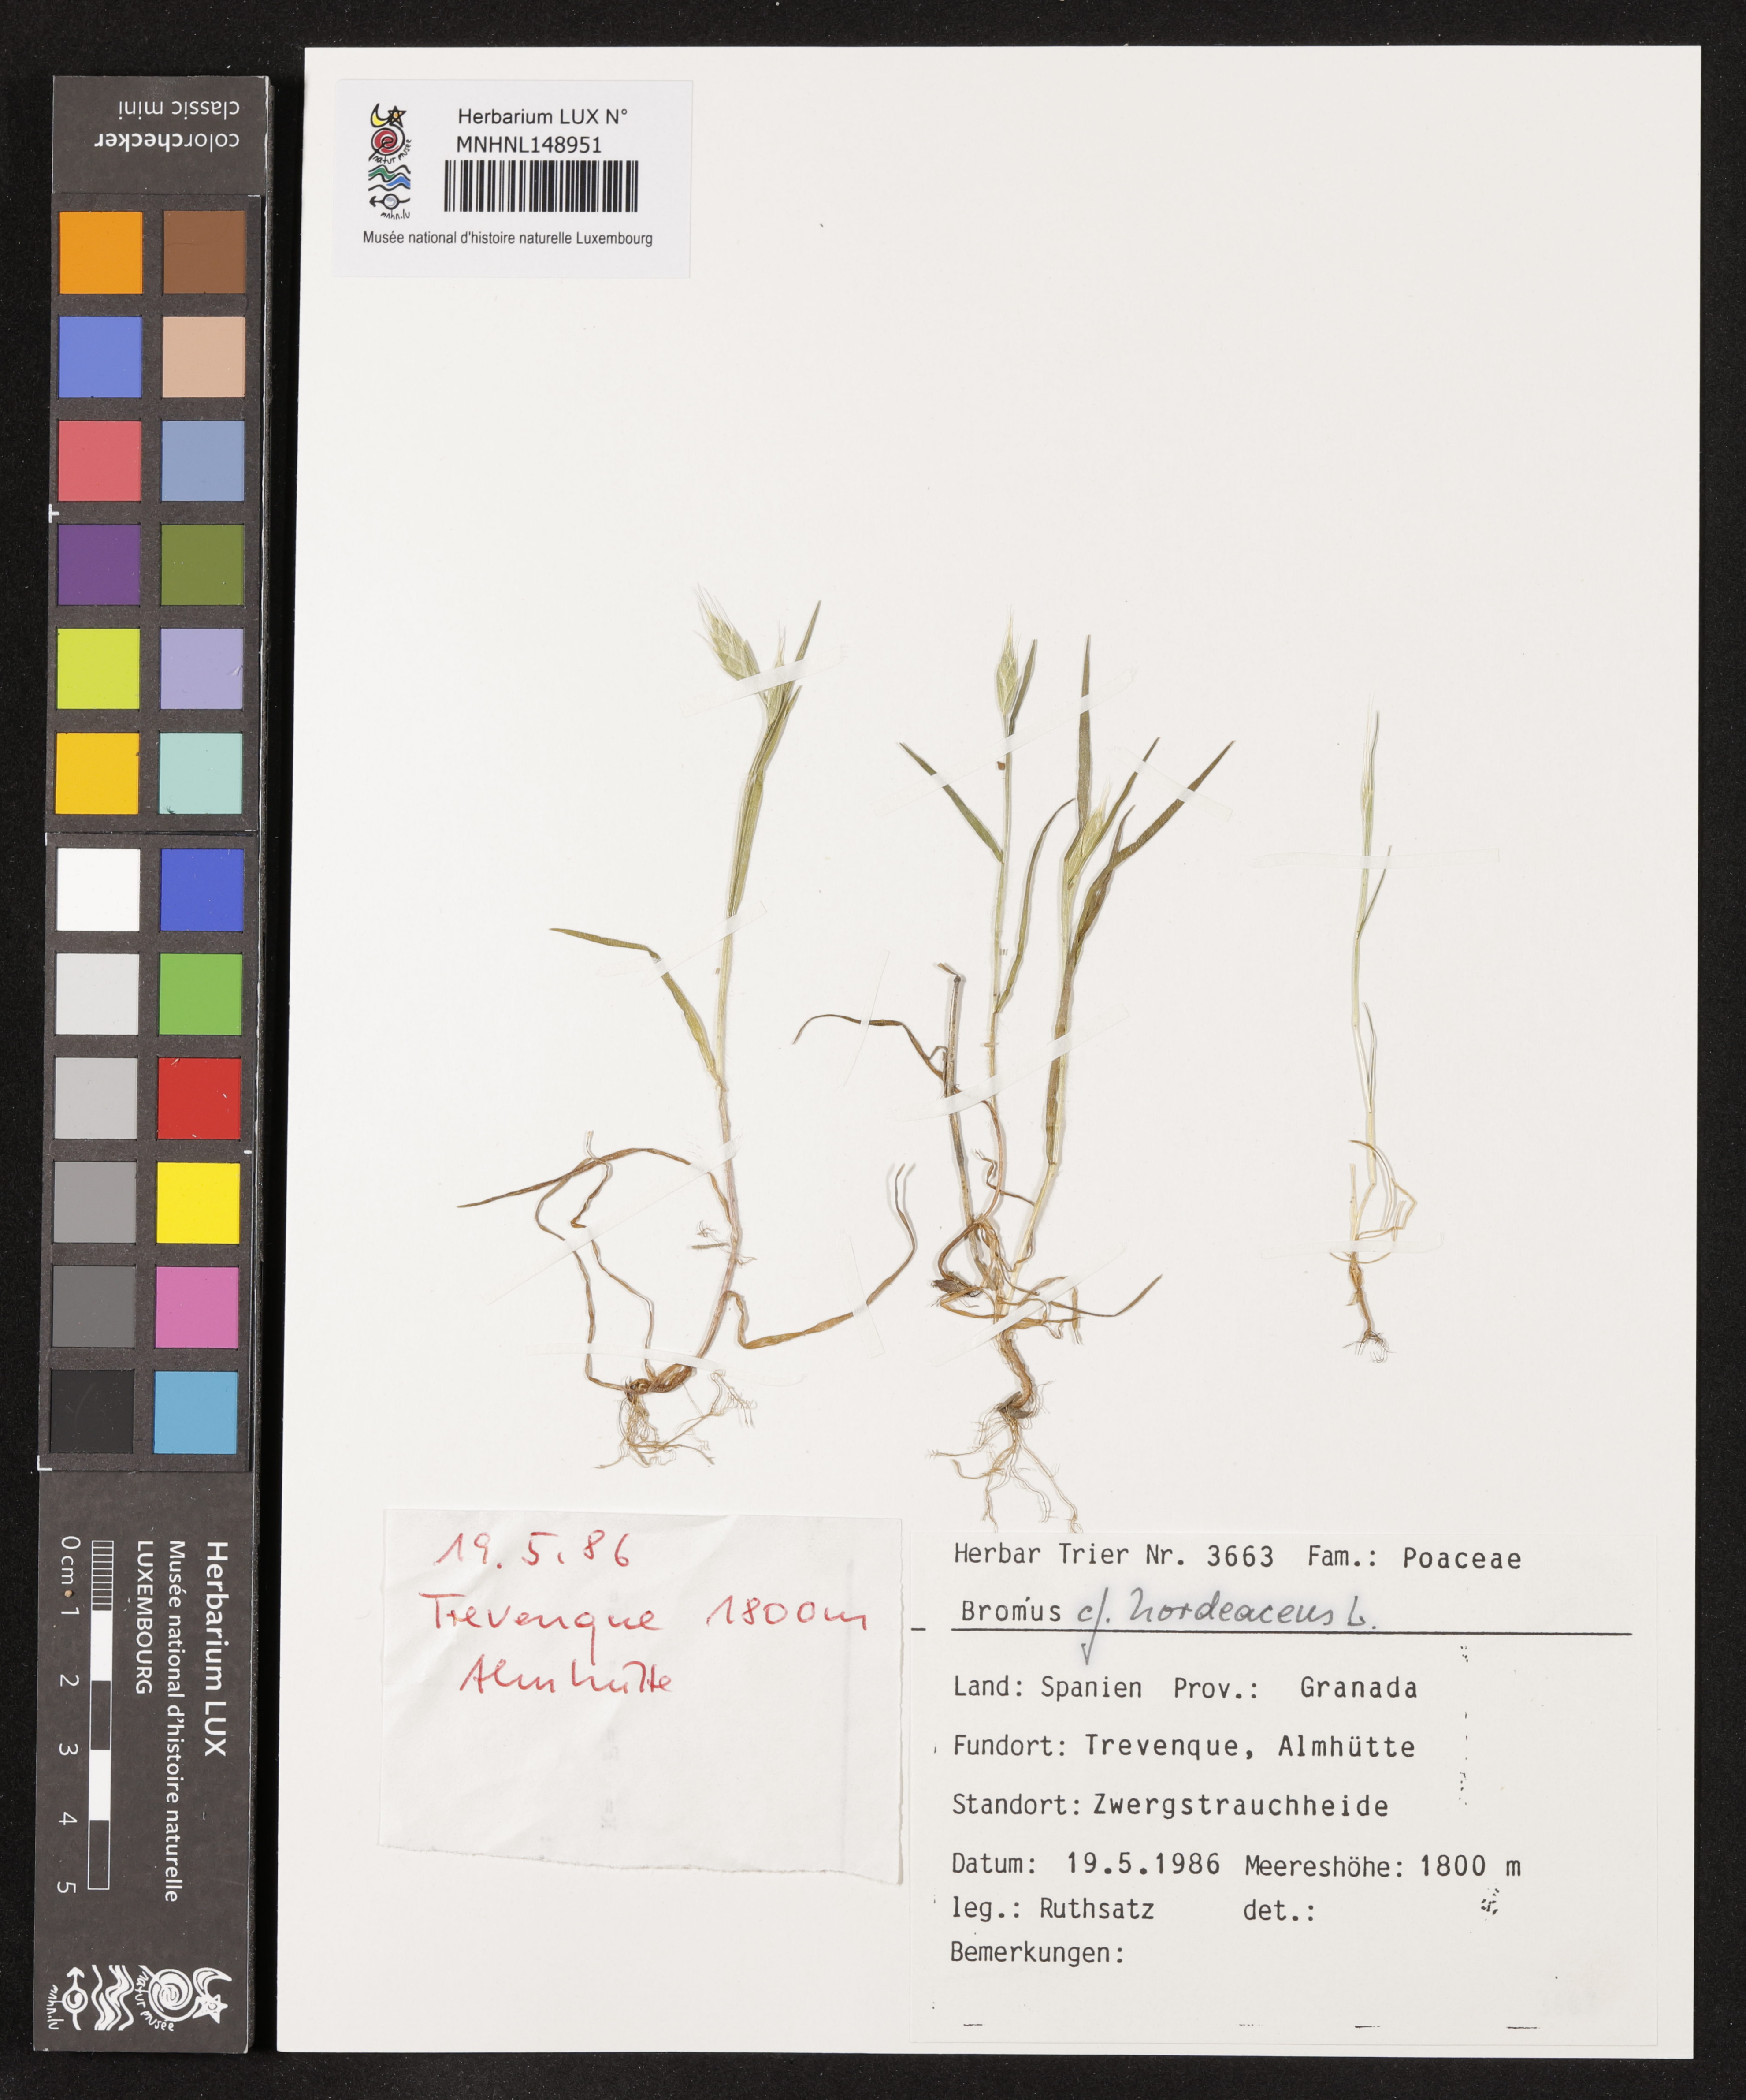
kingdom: Plantae
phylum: Tracheophyta
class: Liliopsida
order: Poales
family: Poaceae
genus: Bromus
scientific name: Bromus hordeaceus
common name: Soft brome
